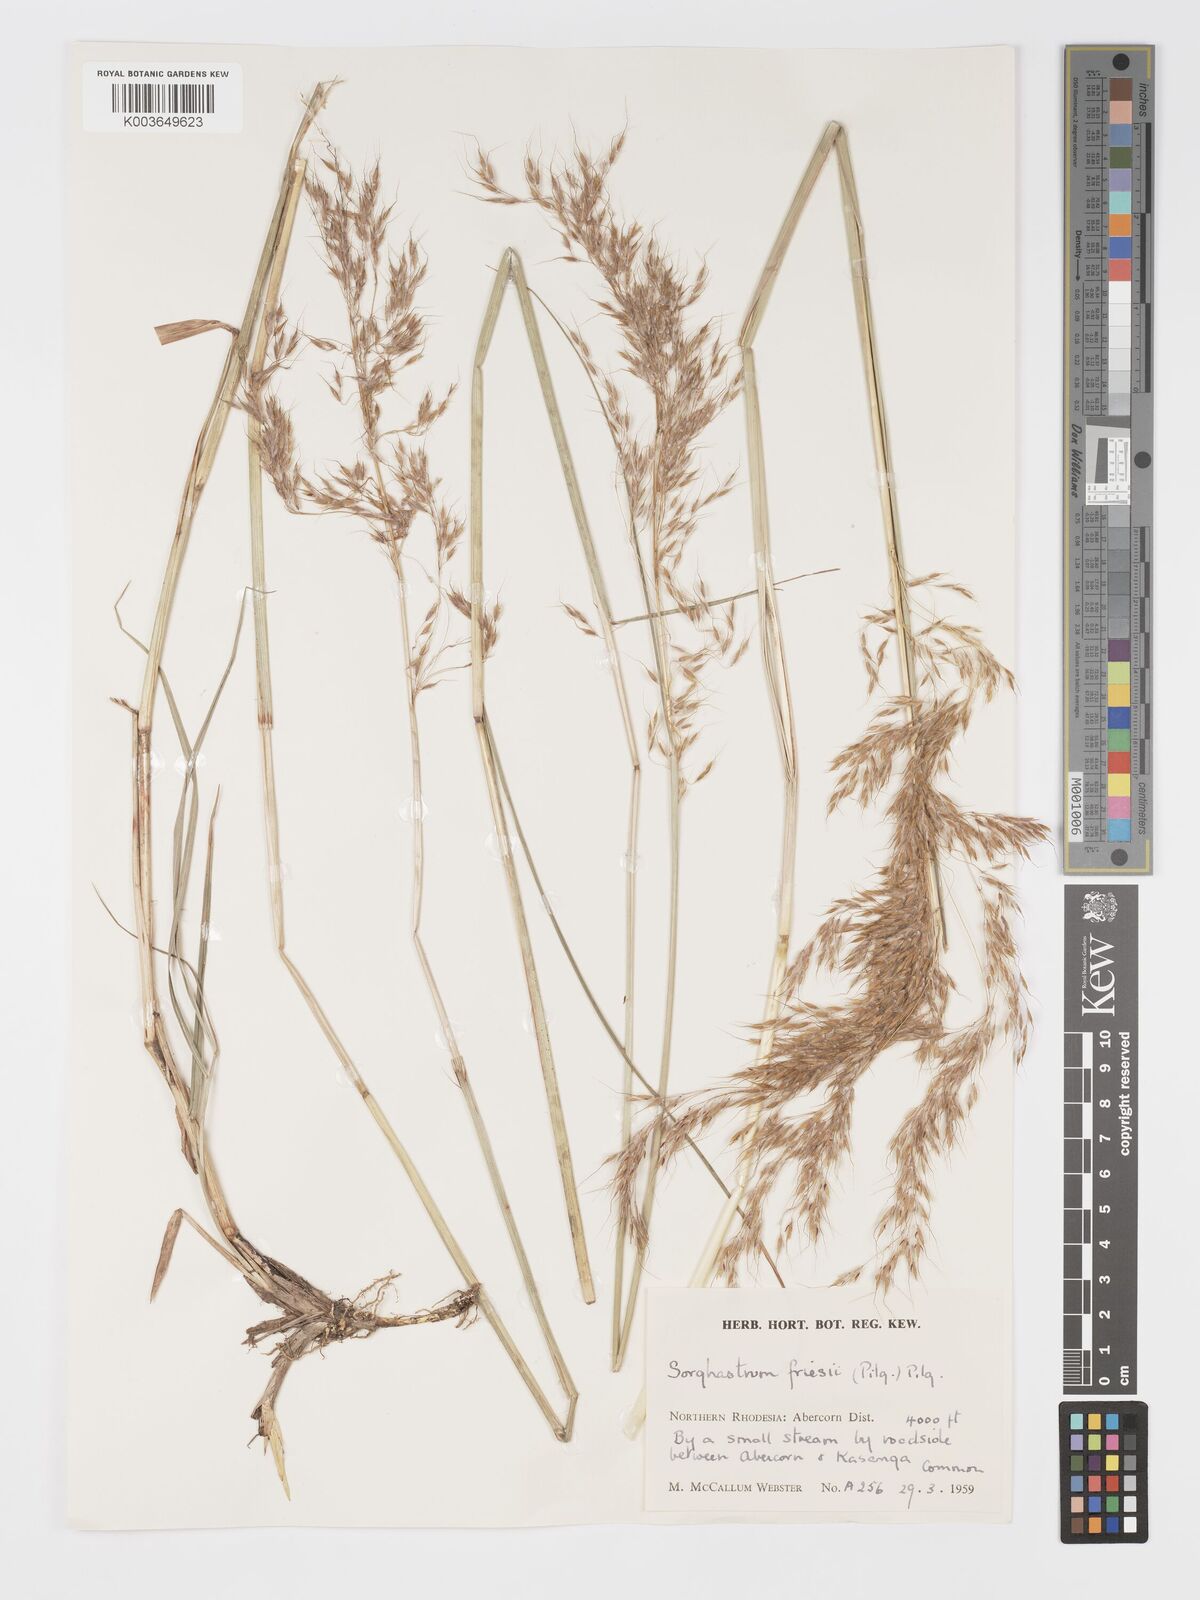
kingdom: Plantae
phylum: Tracheophyta
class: Liliopsida
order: Poales
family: Poaceae
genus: Sorghastrum
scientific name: Sorghastrum stipoides
